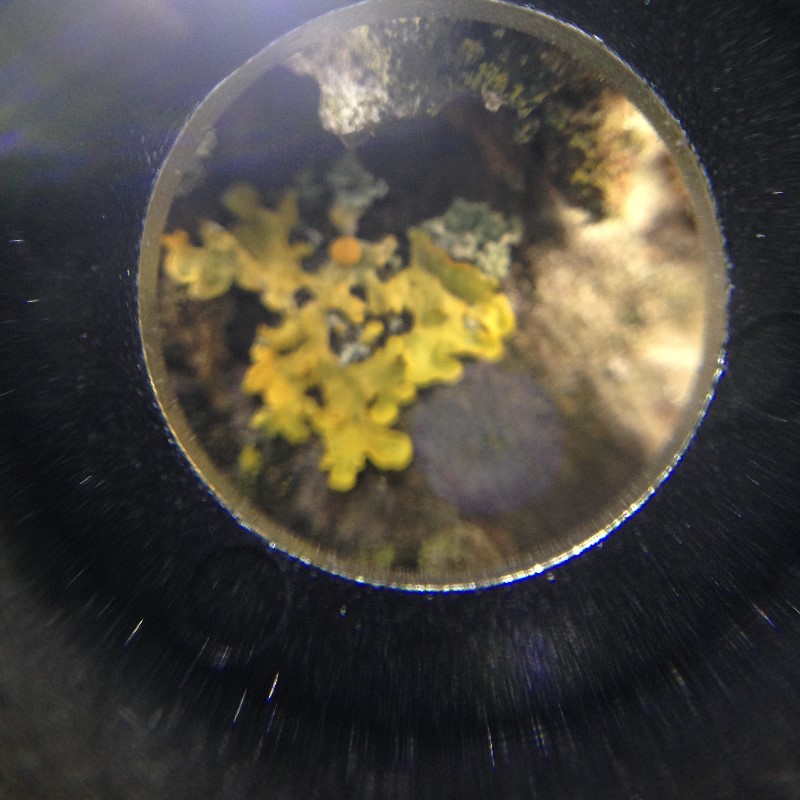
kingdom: Fungi
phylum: Ascomycota
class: Lecanoromycetes
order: Teloschistales
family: Teloschistaceae
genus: Xanthoria
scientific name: Xanthoria parietina
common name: almindelig væggelav
